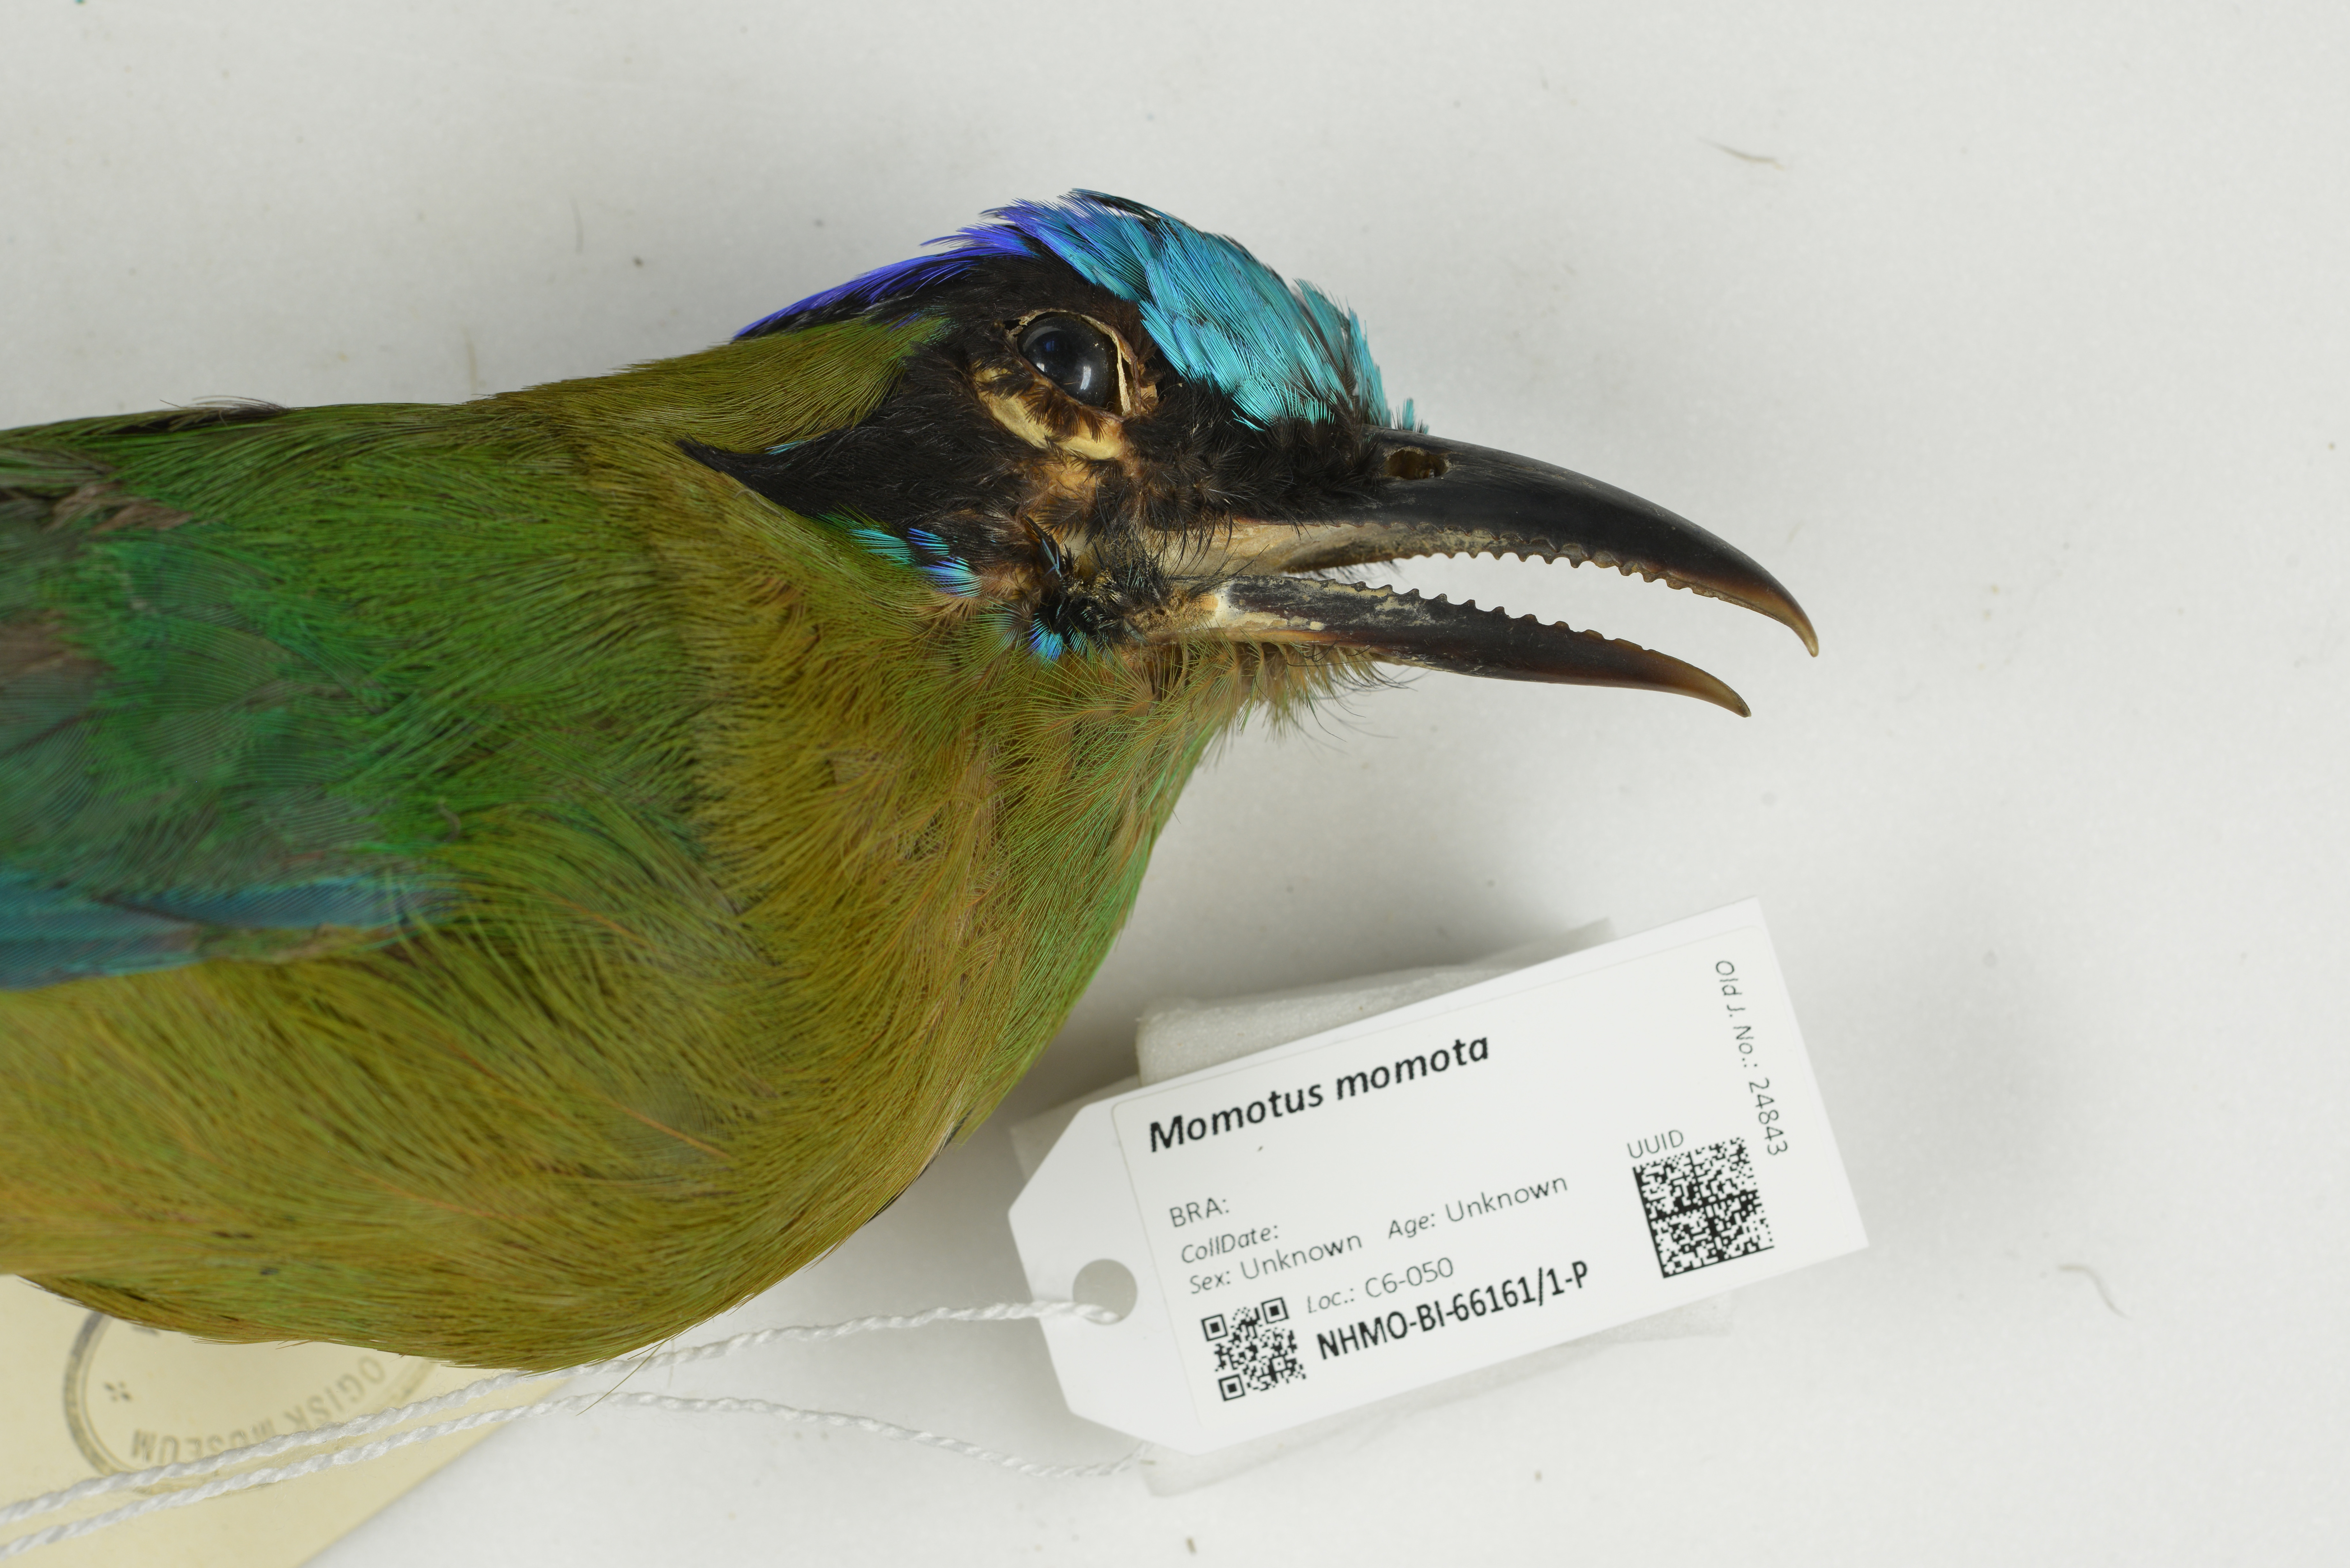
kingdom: Animalia
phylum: Chordata
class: Aves
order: Coraciiformes
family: Momotidae
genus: Momotus
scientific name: Momotus momota
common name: Amazonian motmot
